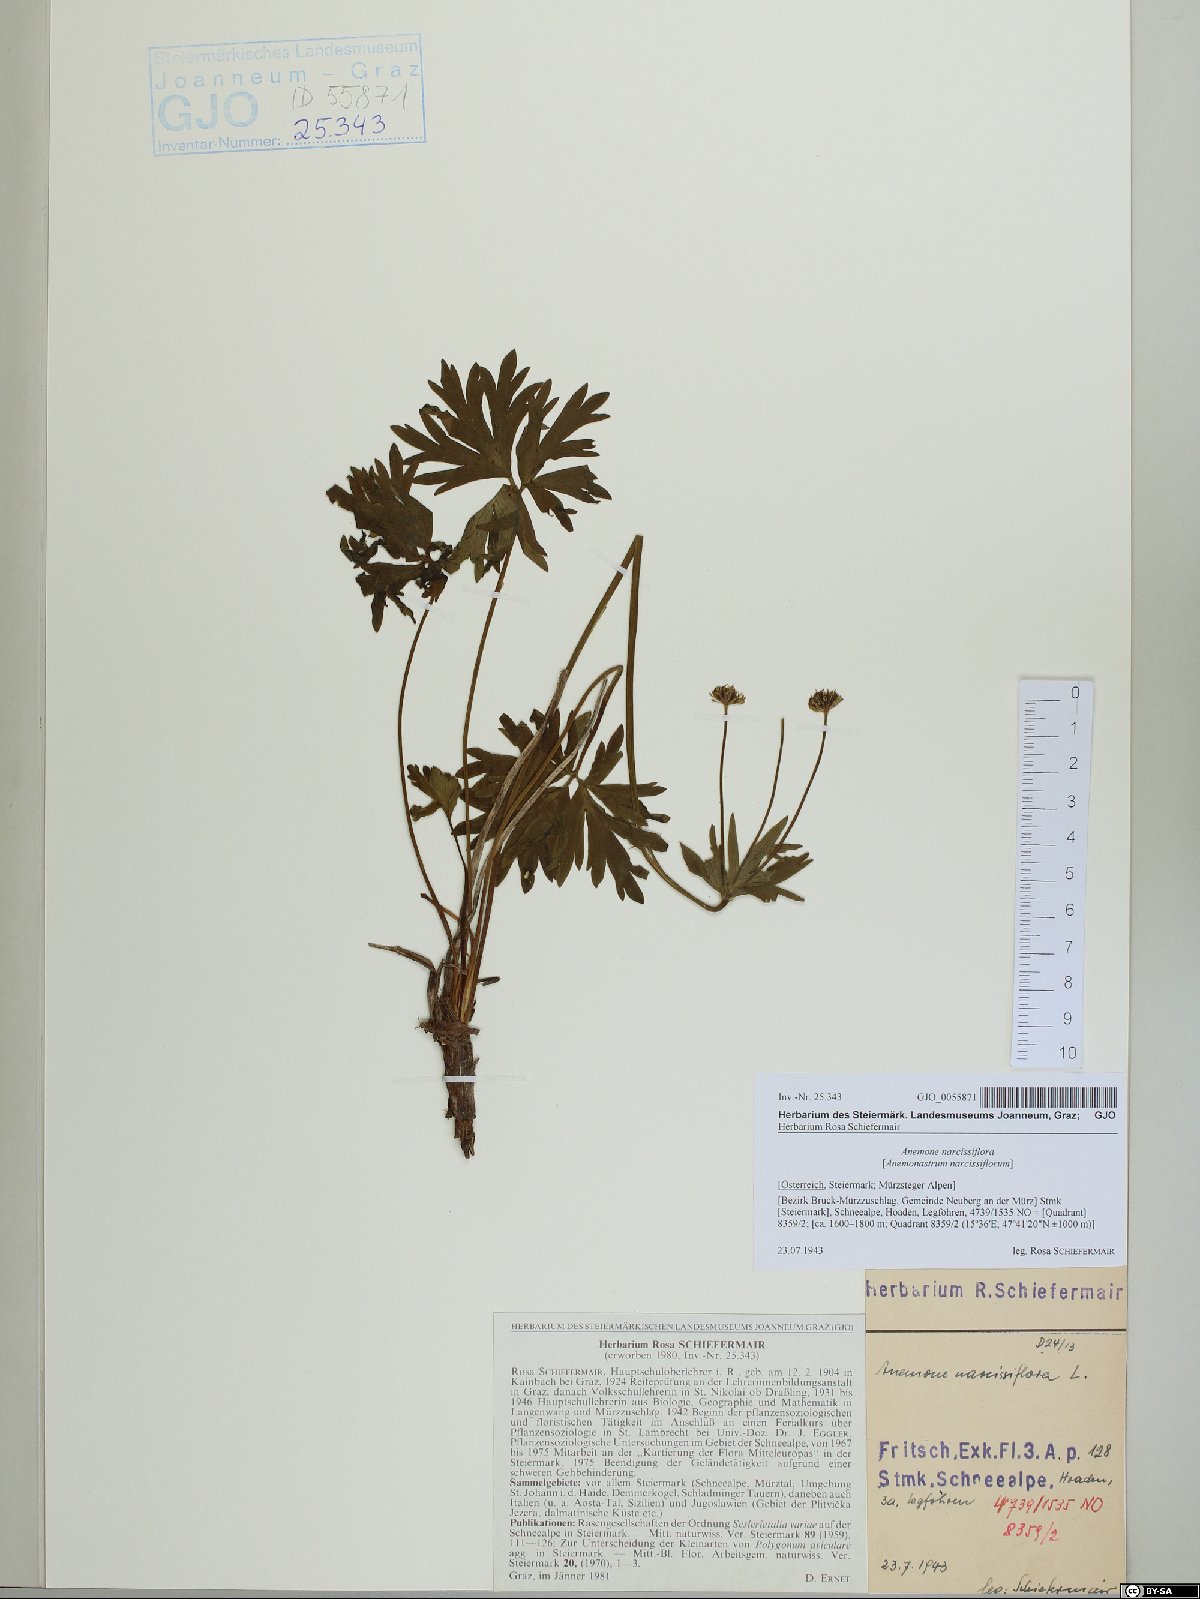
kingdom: Plantae
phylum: Tracheophyta
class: Magnoliopsida
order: Ranunculales
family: Ranunculaceae
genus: Anemonastrum
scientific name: Anemonastrum narcissiflorum
